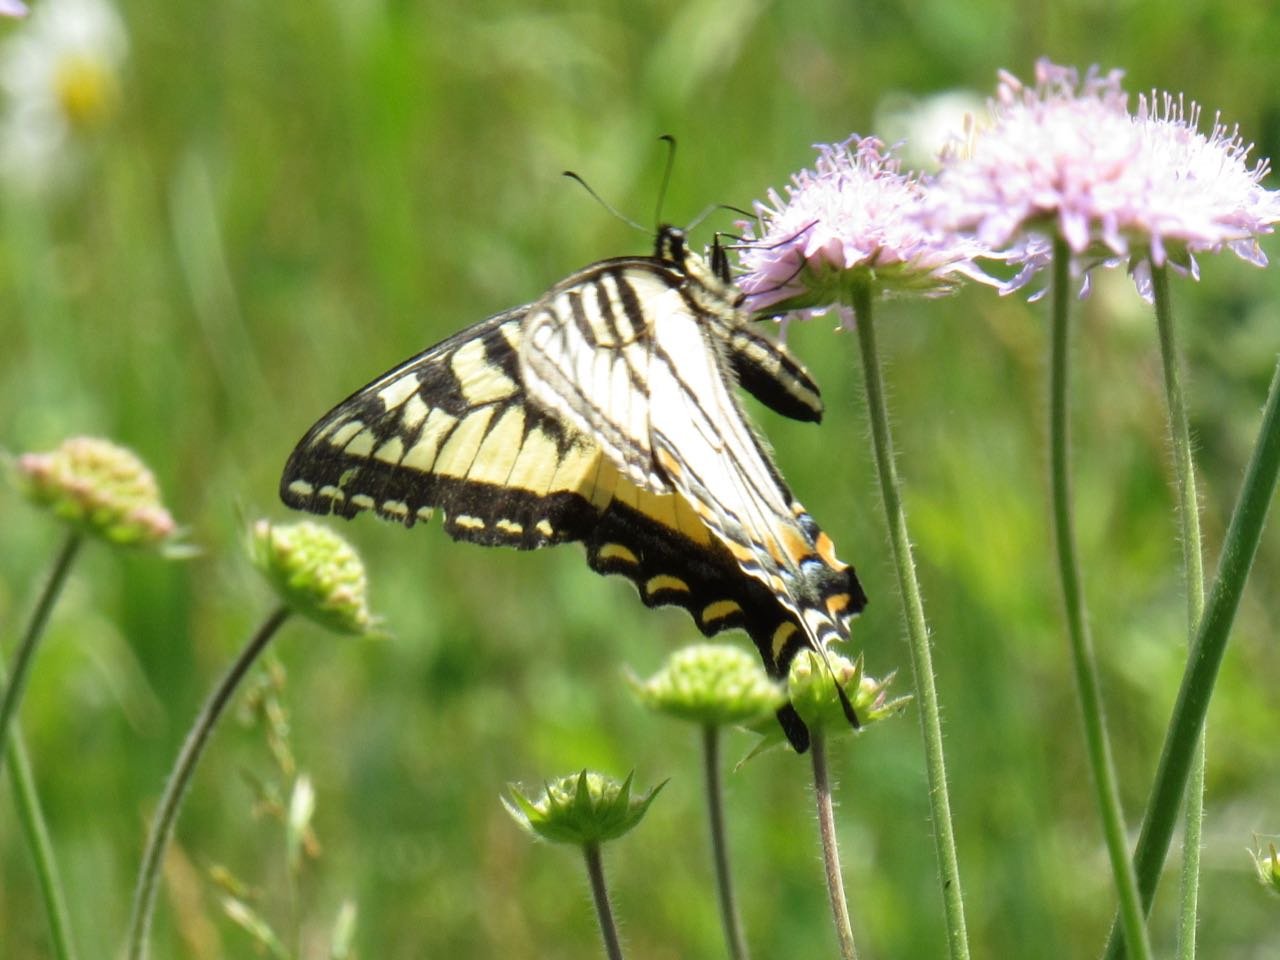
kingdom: Animalia
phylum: Arthropoda
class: Insecta
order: Lepidoptera
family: Papilionidae
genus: Pterourus
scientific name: Pterourus canadensis
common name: Canadian Tiger Swallowtail
